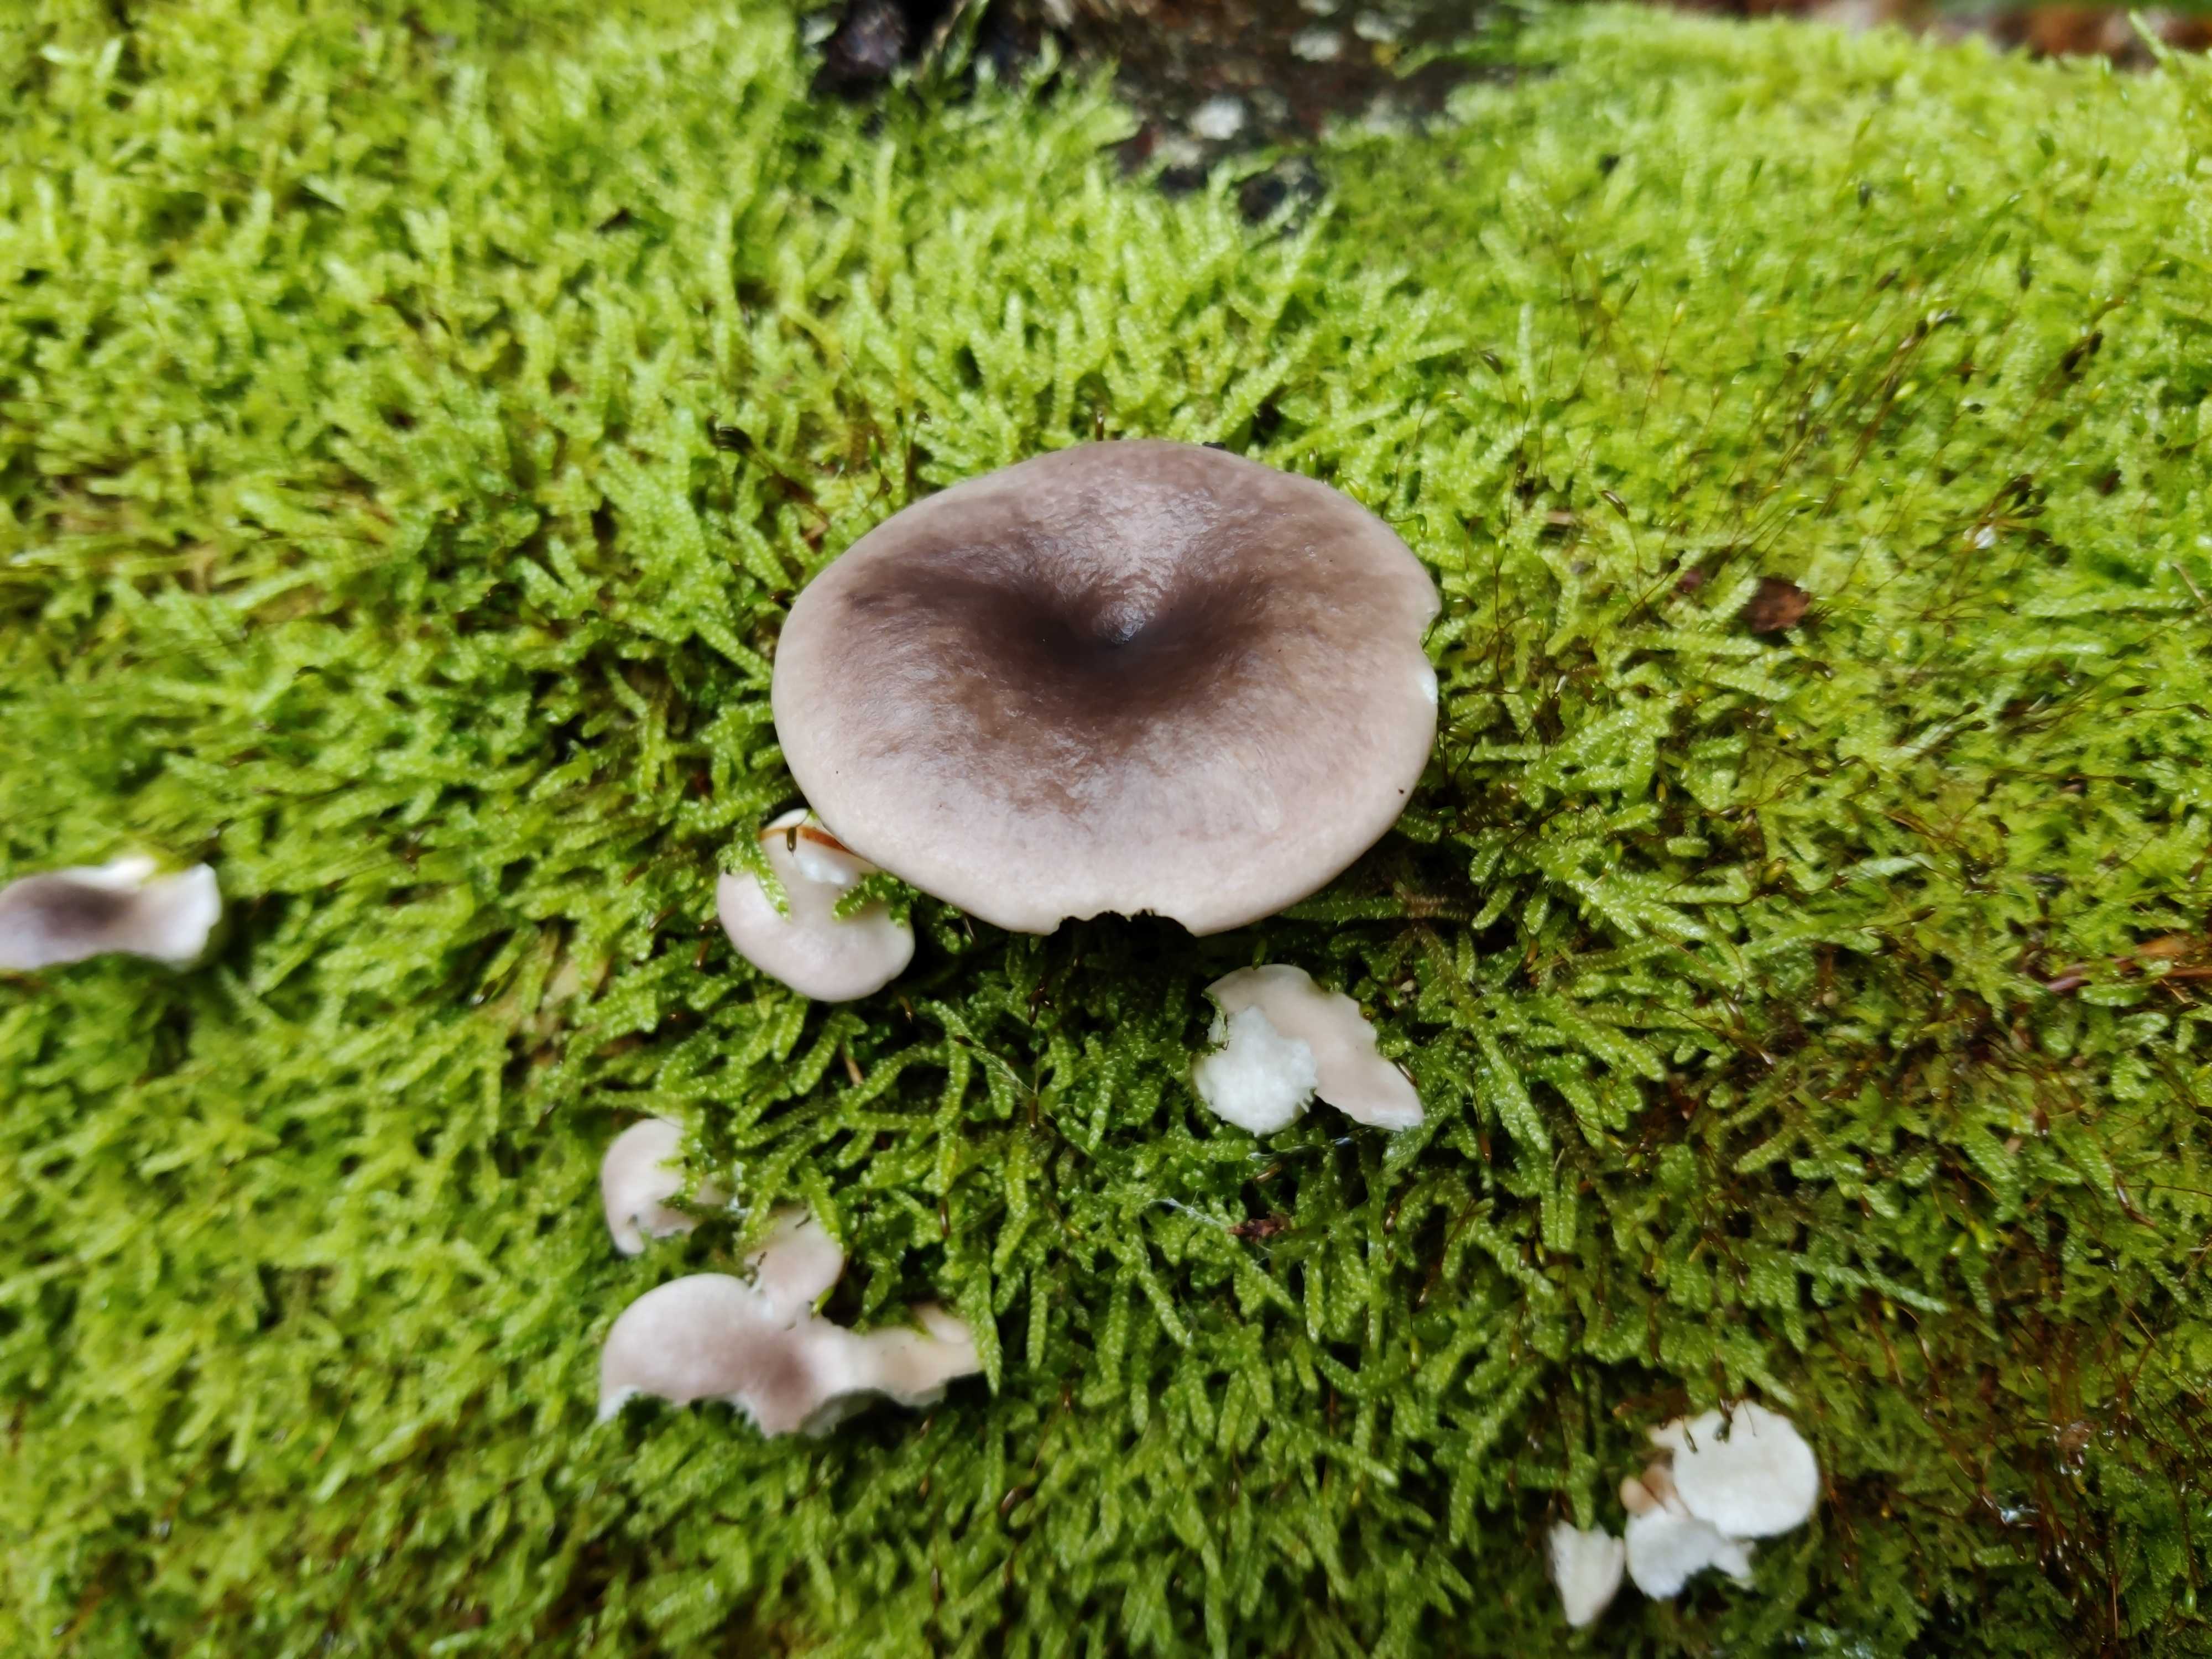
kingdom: Fungi
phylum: Basidiomycota
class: Agaricomycetes
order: Agaricales
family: Pleurotaceae
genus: Pleurotus
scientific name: Pleurotus ostreatus
